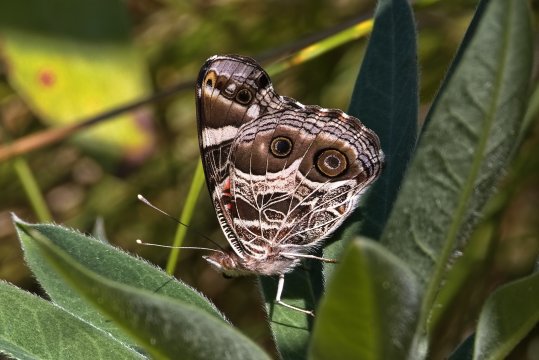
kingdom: Animalia
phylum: Arthropoda
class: Insecta
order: Lepidoptera
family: Nymphalidae
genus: Vanessa
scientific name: Vanessa virginiensis
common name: American Lady
